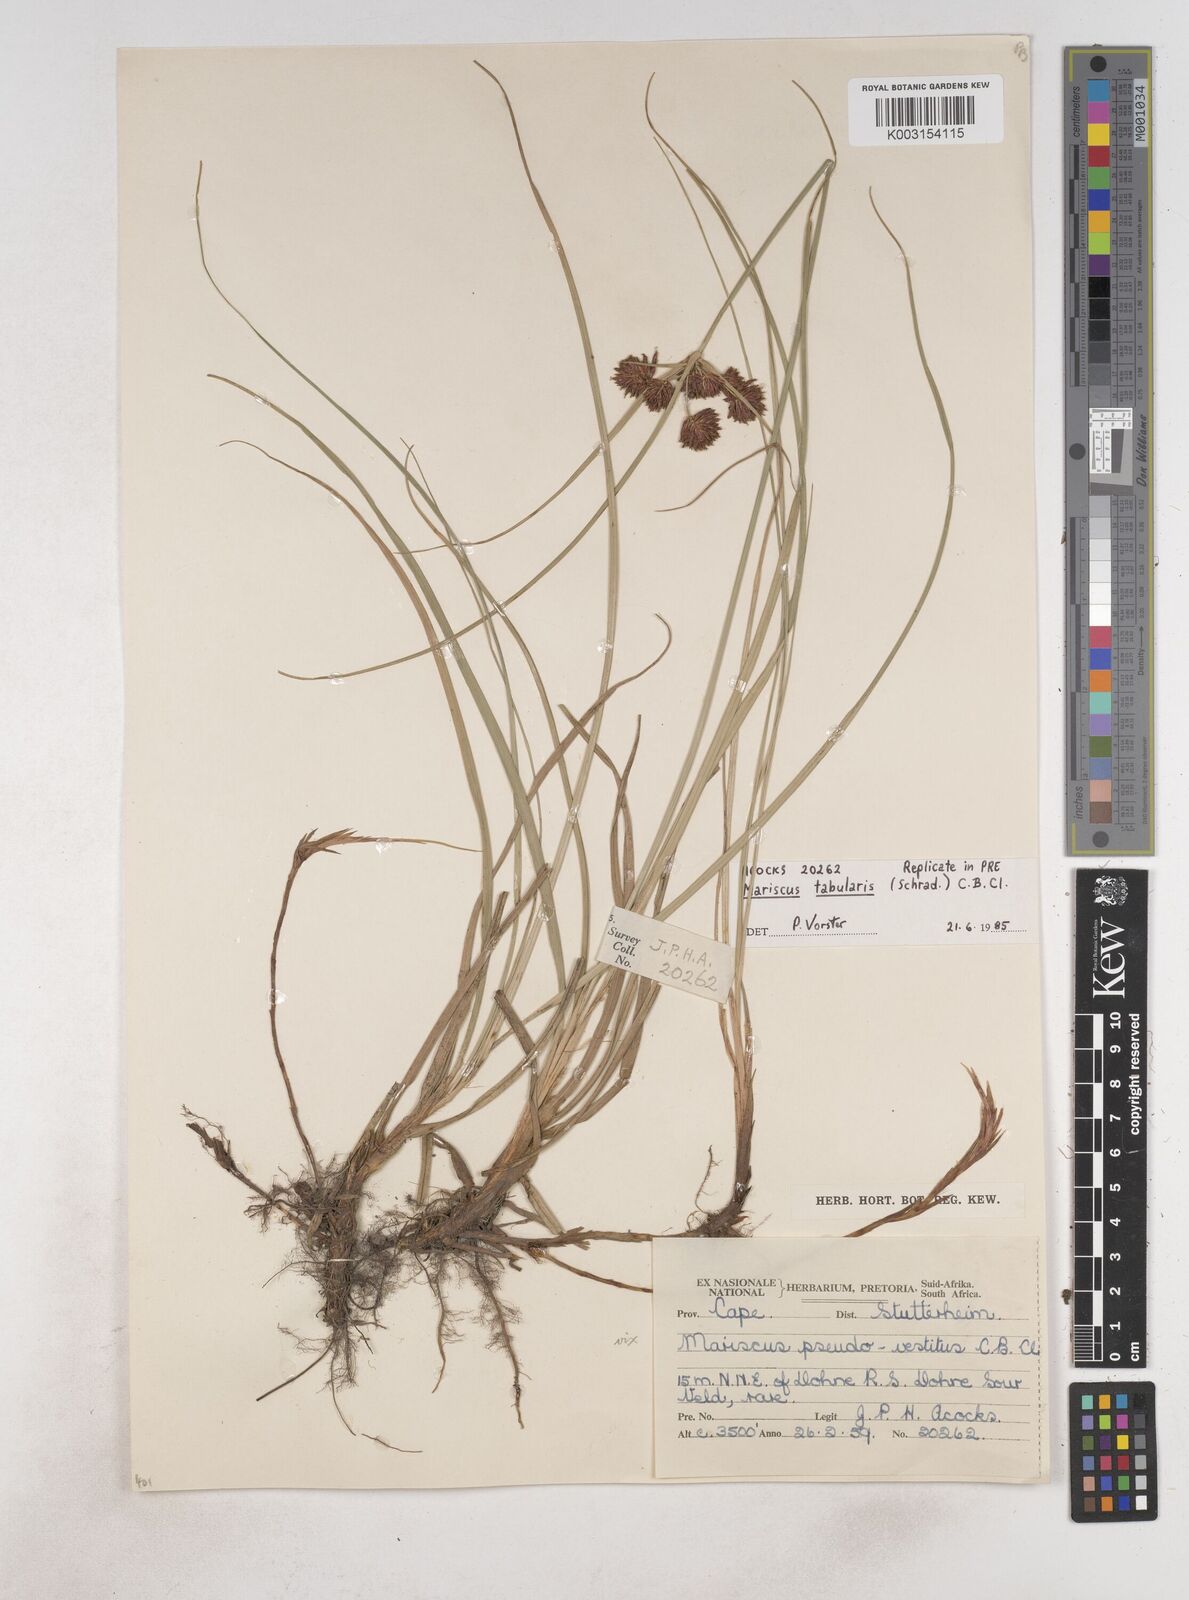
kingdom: Plantae
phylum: Tracheophyta
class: Liliopsida
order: Poales
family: Cyperaceae
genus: Cyperus
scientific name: Cyperus tabularis
